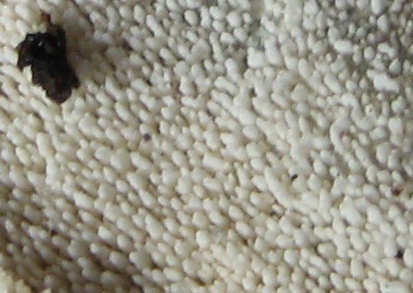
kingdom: Fungi
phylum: Basidiomycota
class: Agaricomycetes
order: Trechisporales
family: Sistotremataceae
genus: Trechispora
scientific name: Trechispora nivea
